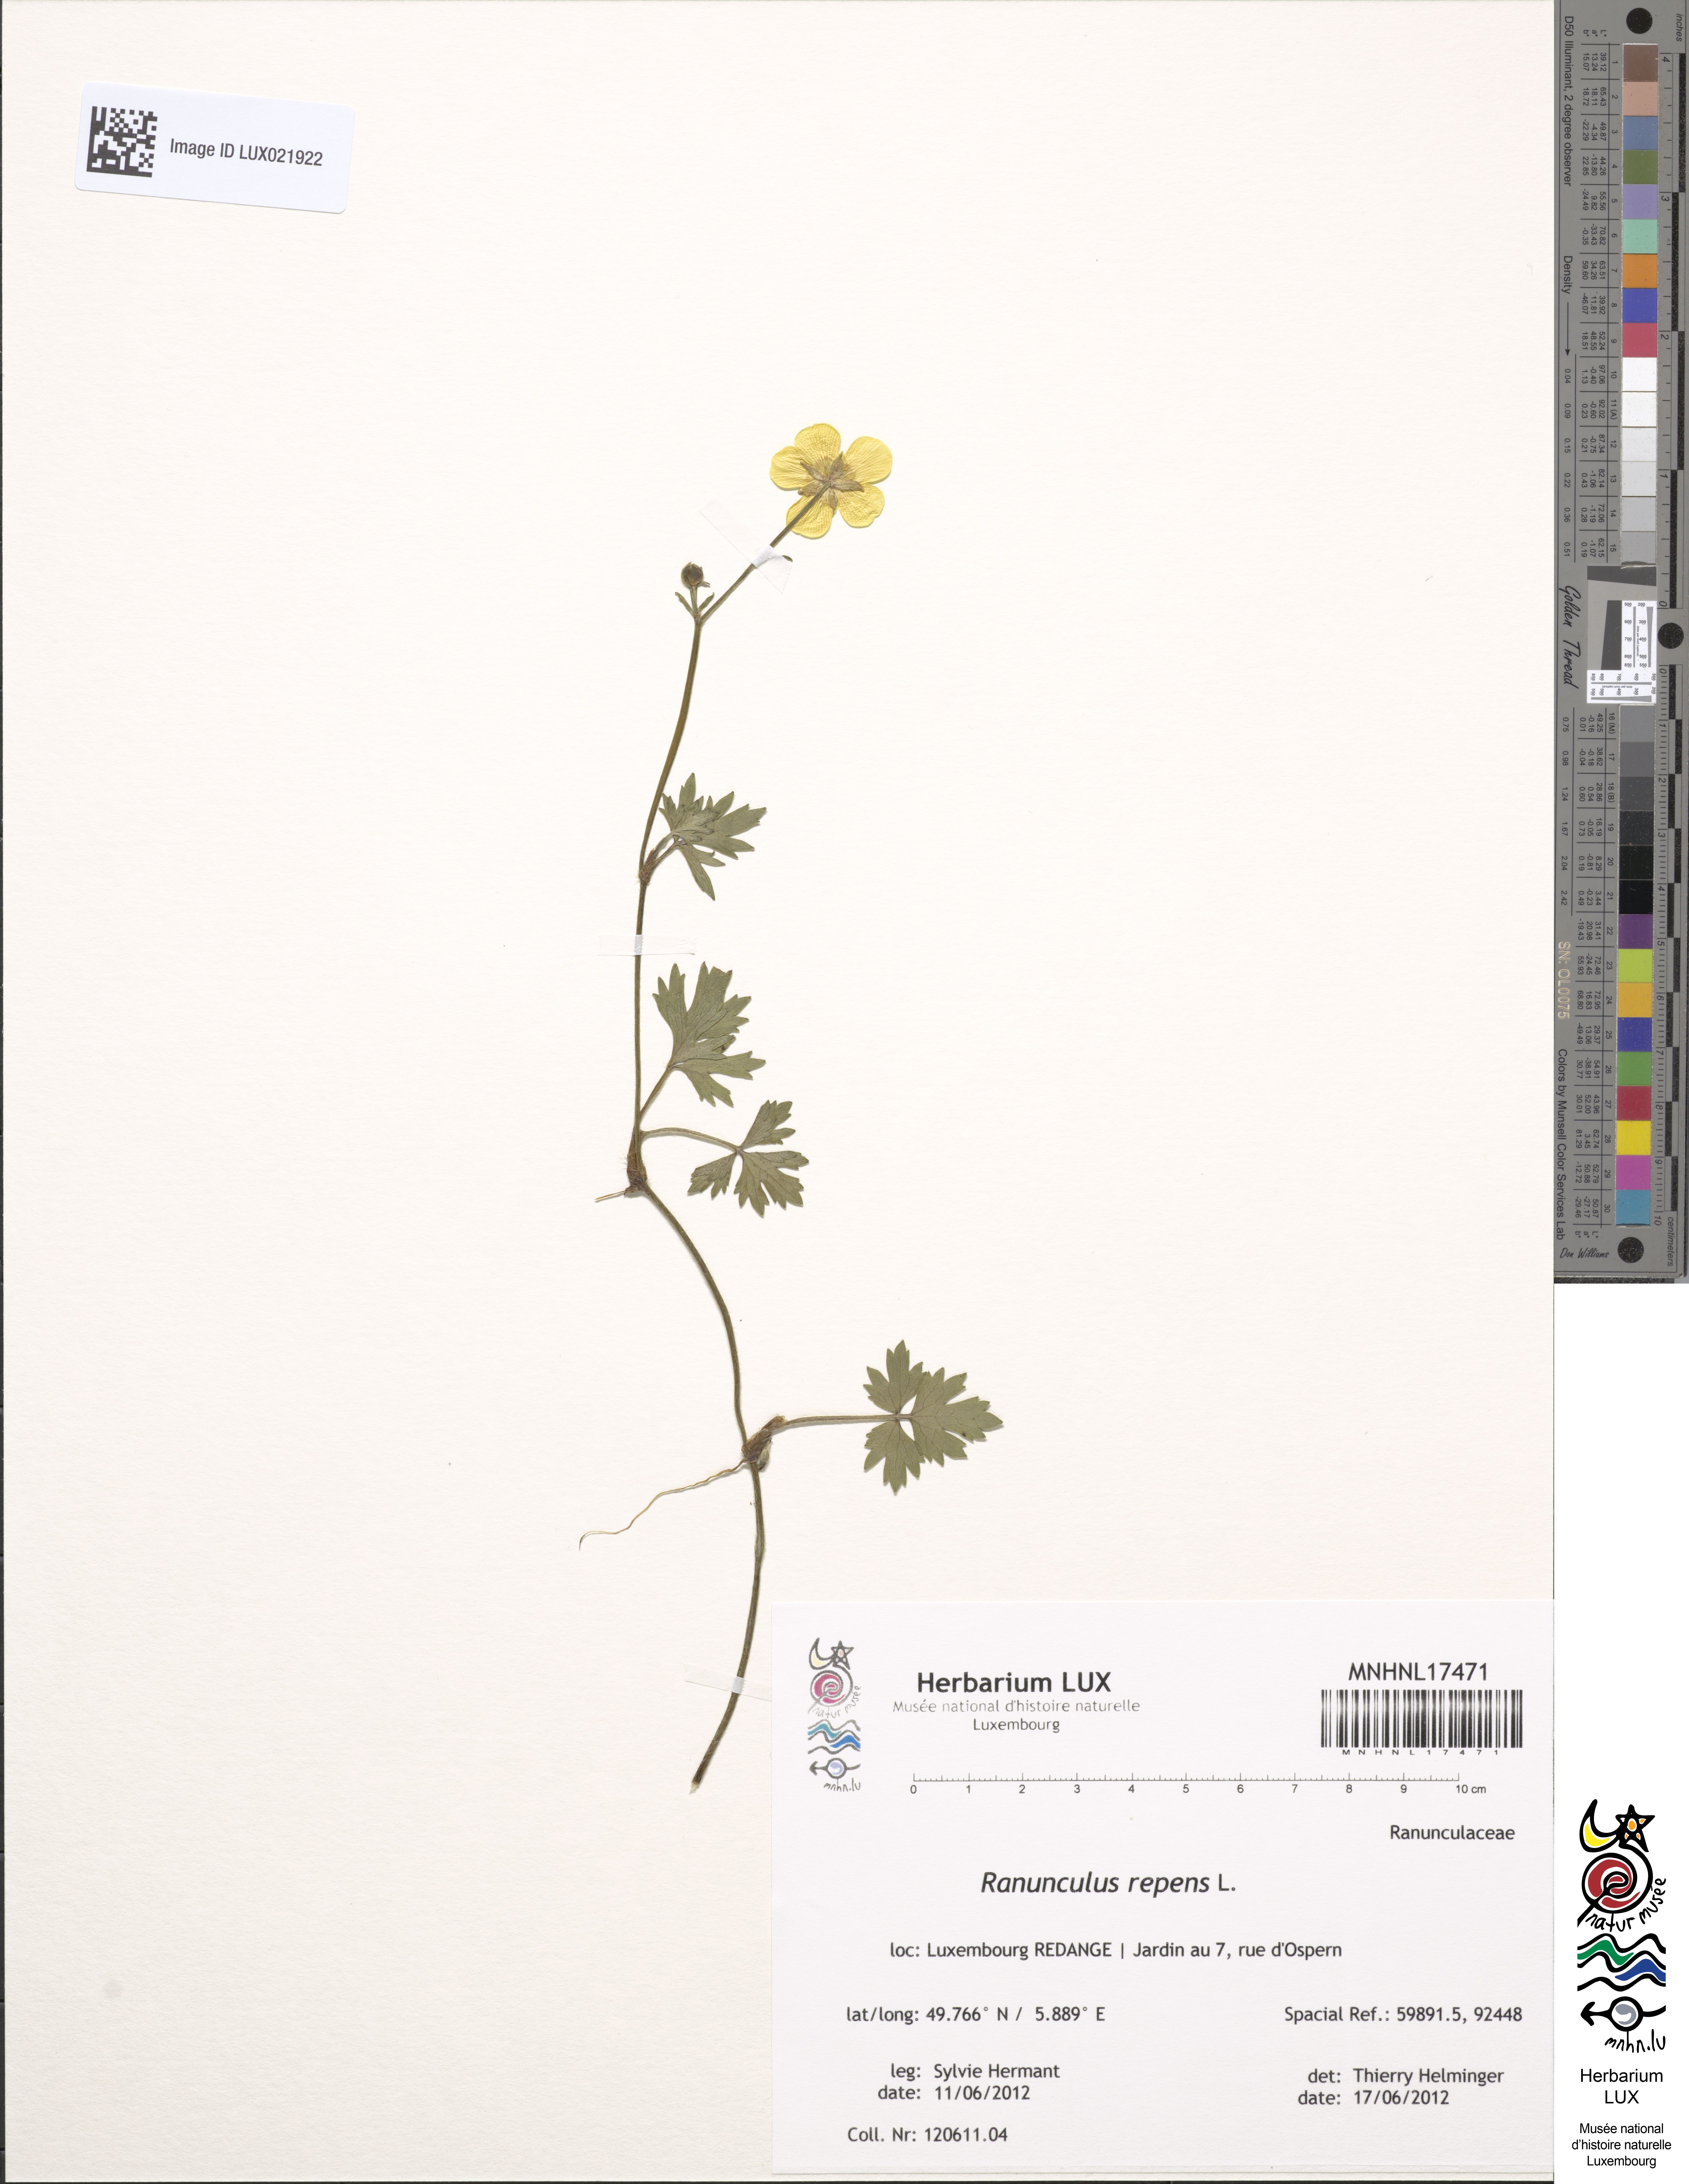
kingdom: Plantae
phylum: Tracheophyta
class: Magnoliopsida
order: Ranunculales
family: Ranunculaceae
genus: Ranunculus
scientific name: Ranunculus repens
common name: Creeping buttercup
